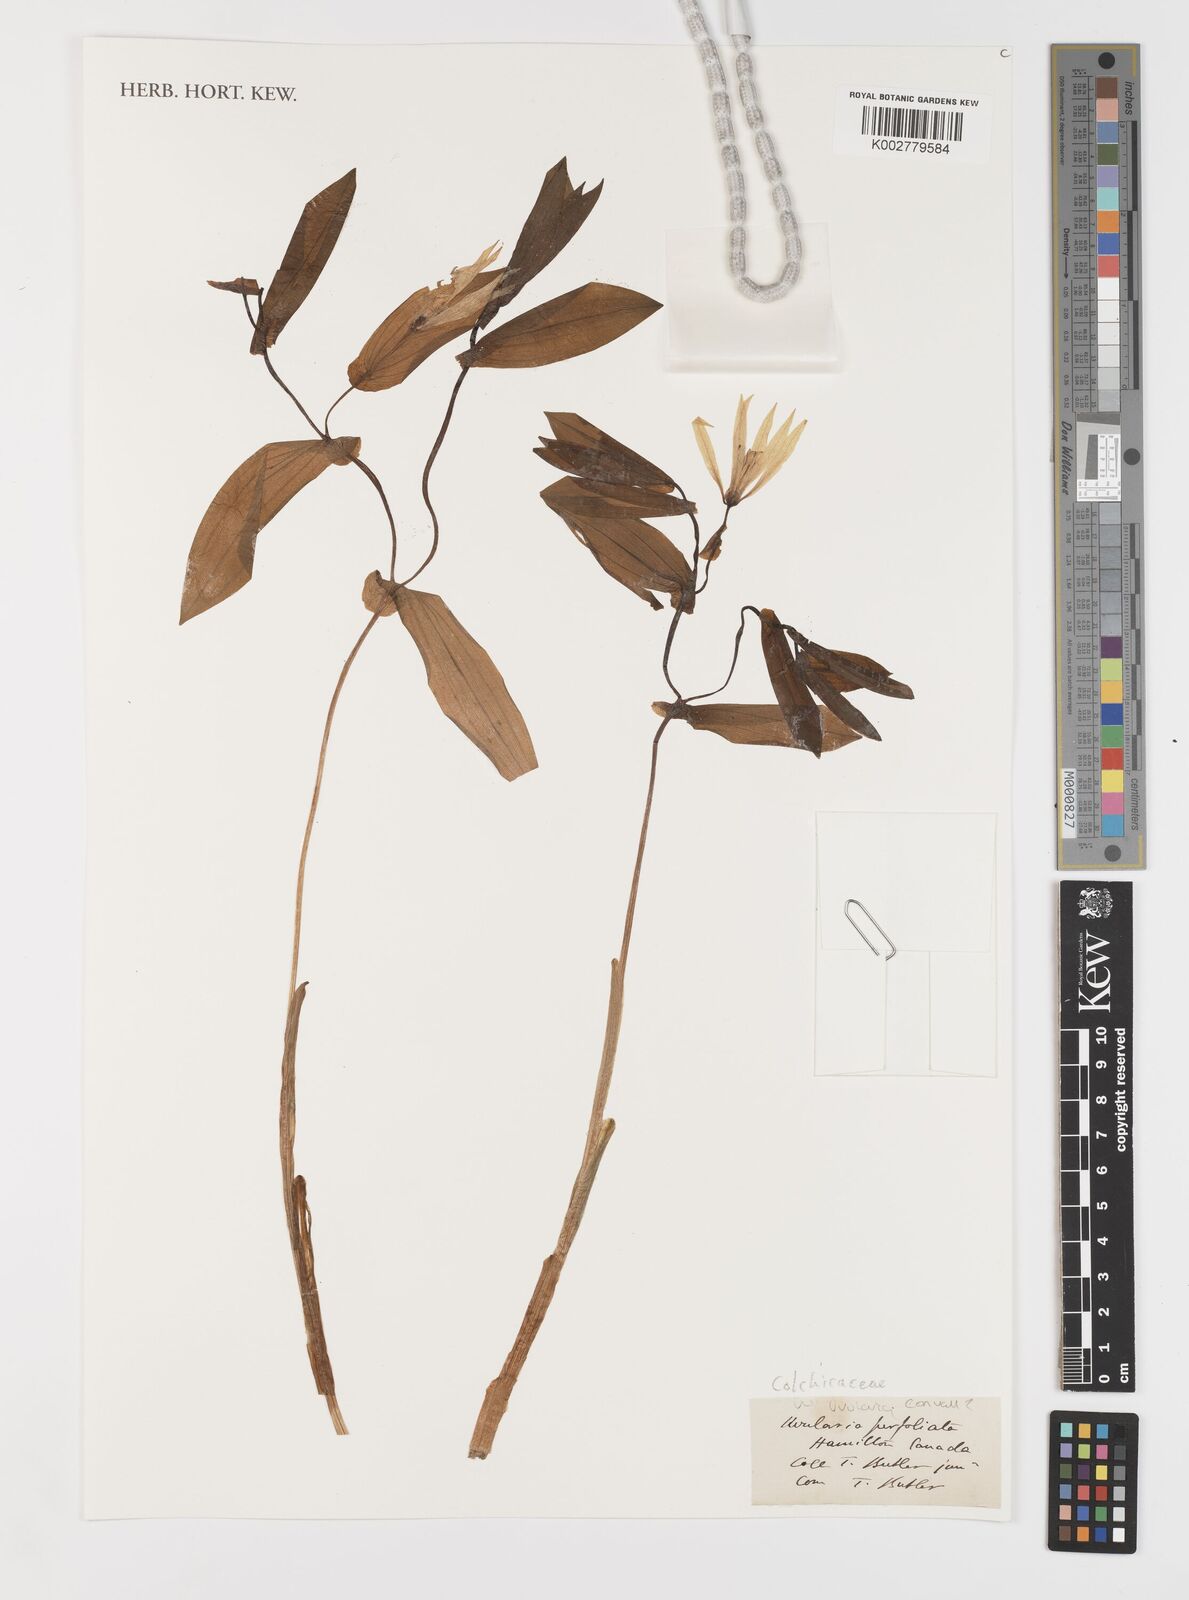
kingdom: Plantae
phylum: Tracheophyta
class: Liliopsida
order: Liliales
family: Colchicaceae
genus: Uvularia
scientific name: Uvularia perfoliata
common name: Perfoliate bellwort
